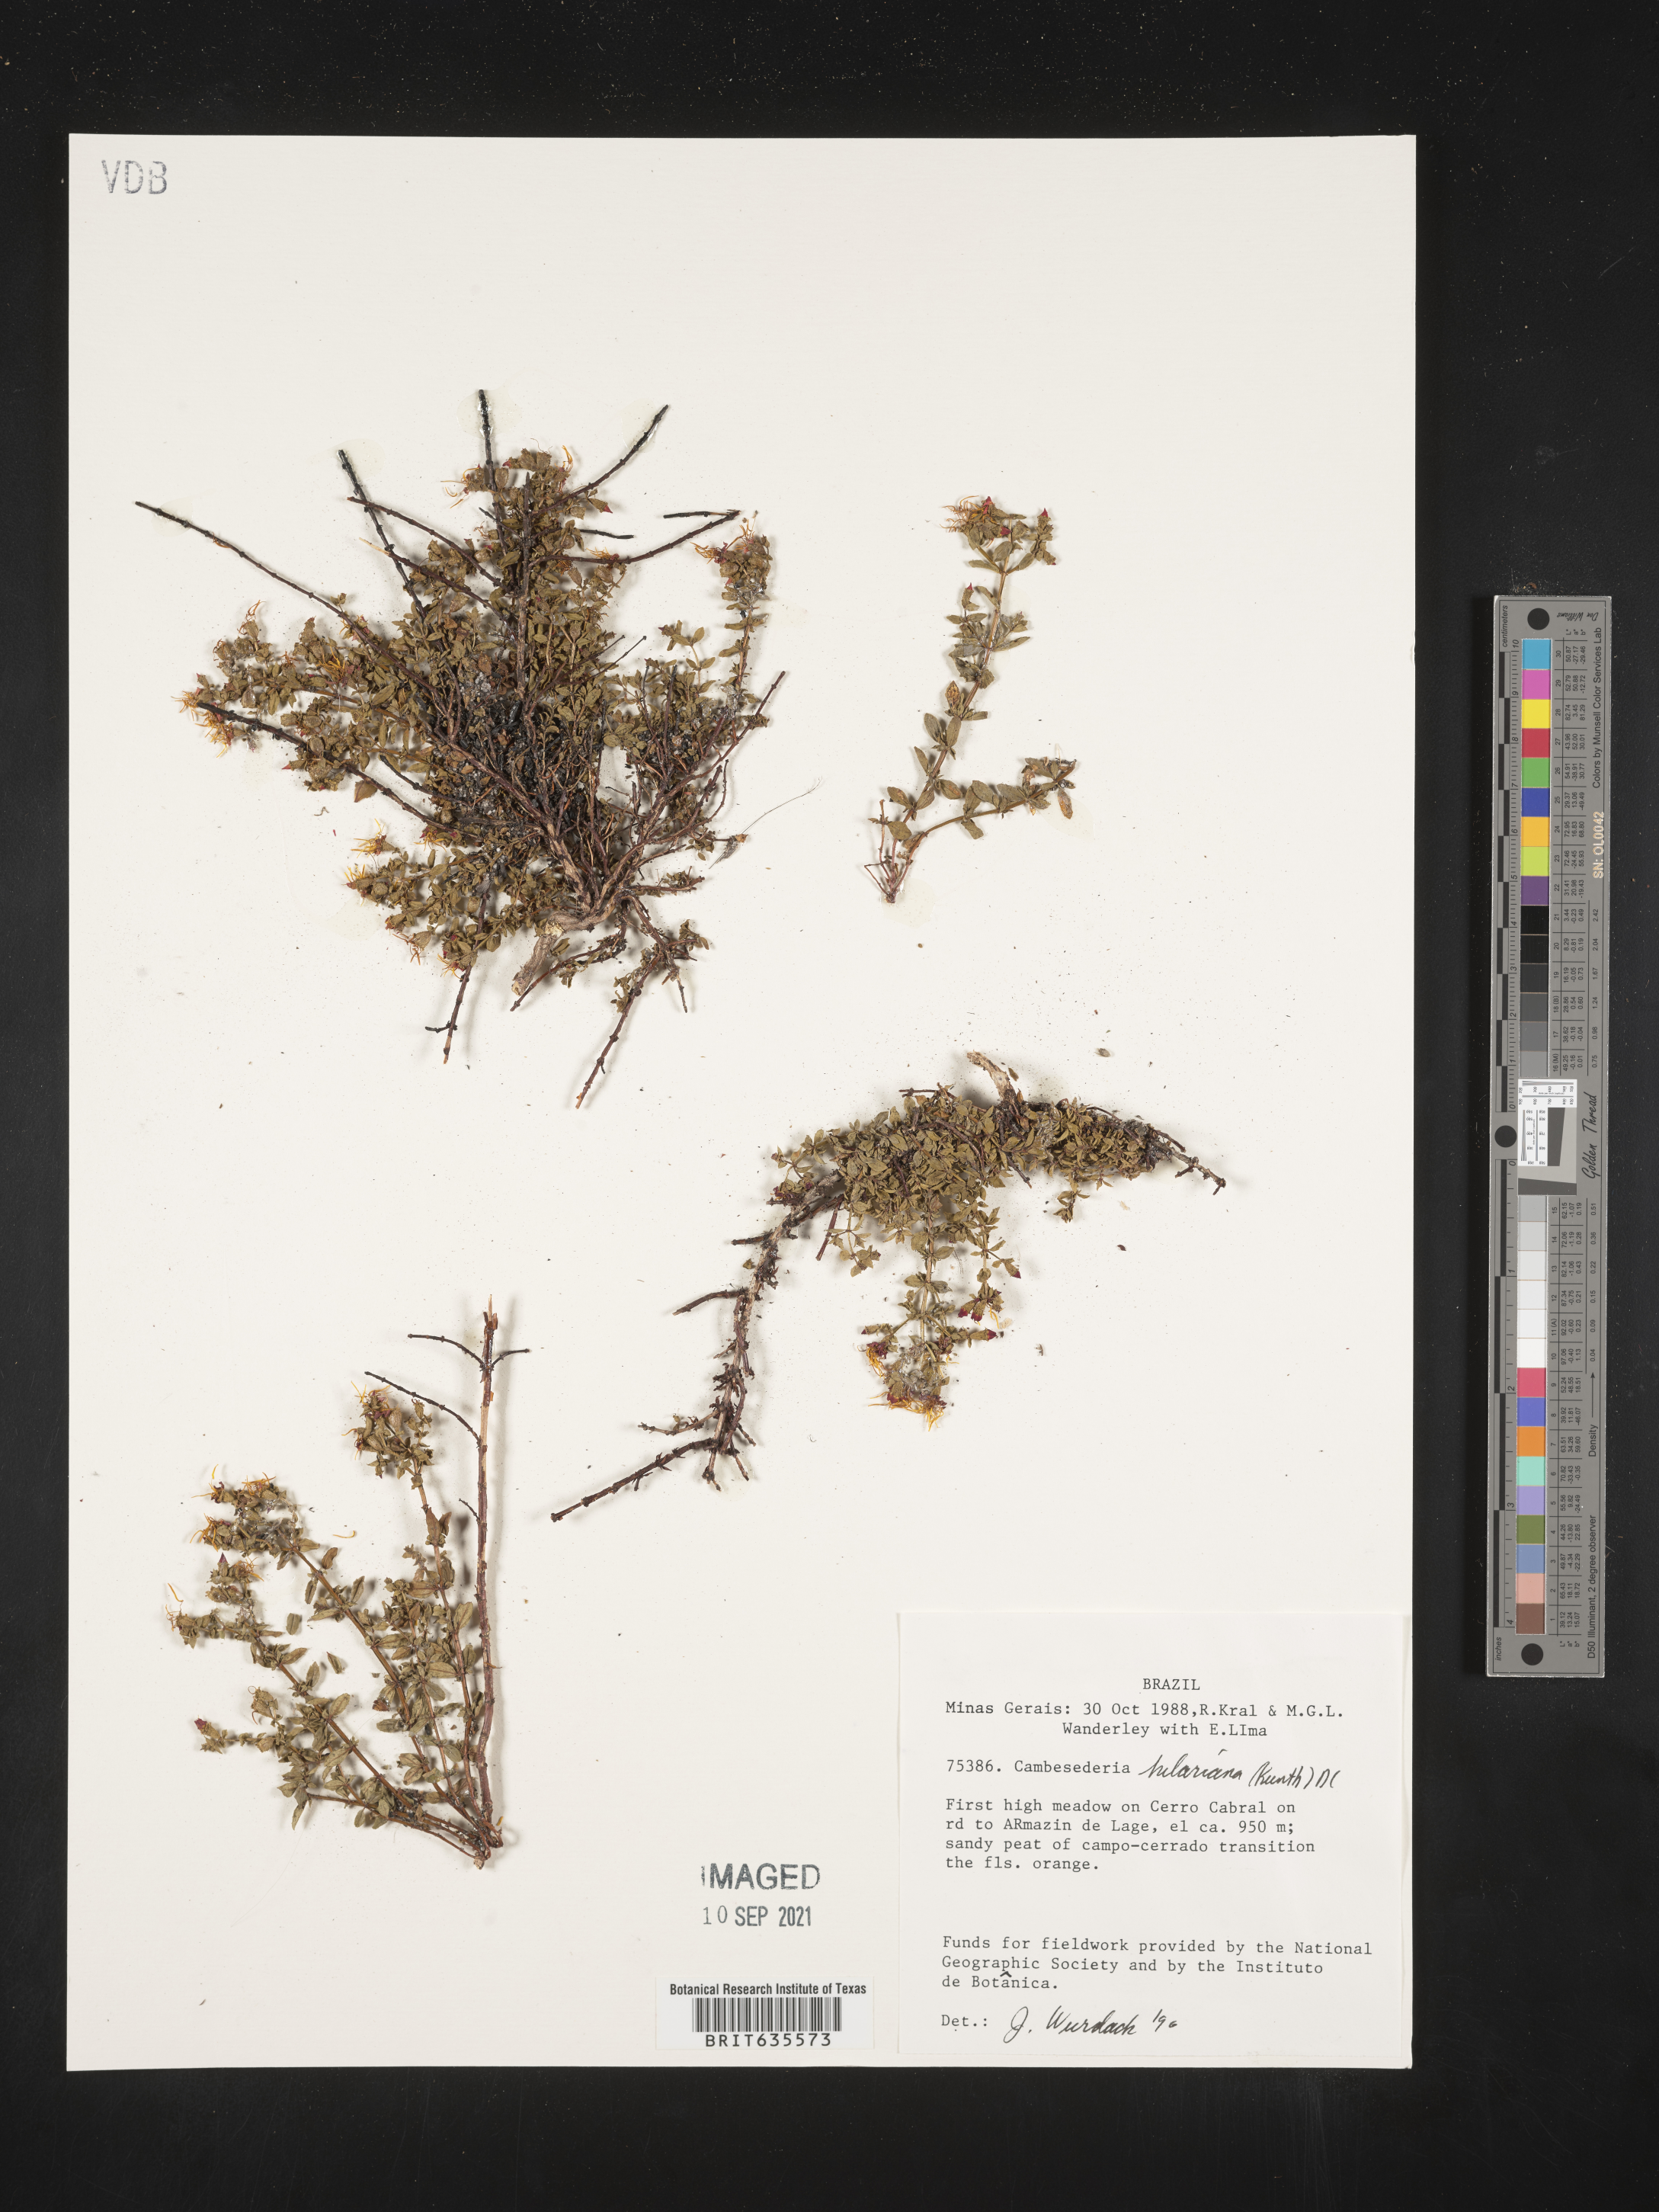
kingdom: Plantae
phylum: Tracheophyta
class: Magnoliopsida
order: Myrtales
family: Melastomataceae
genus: Cambessedesia
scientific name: Cambessedesia
